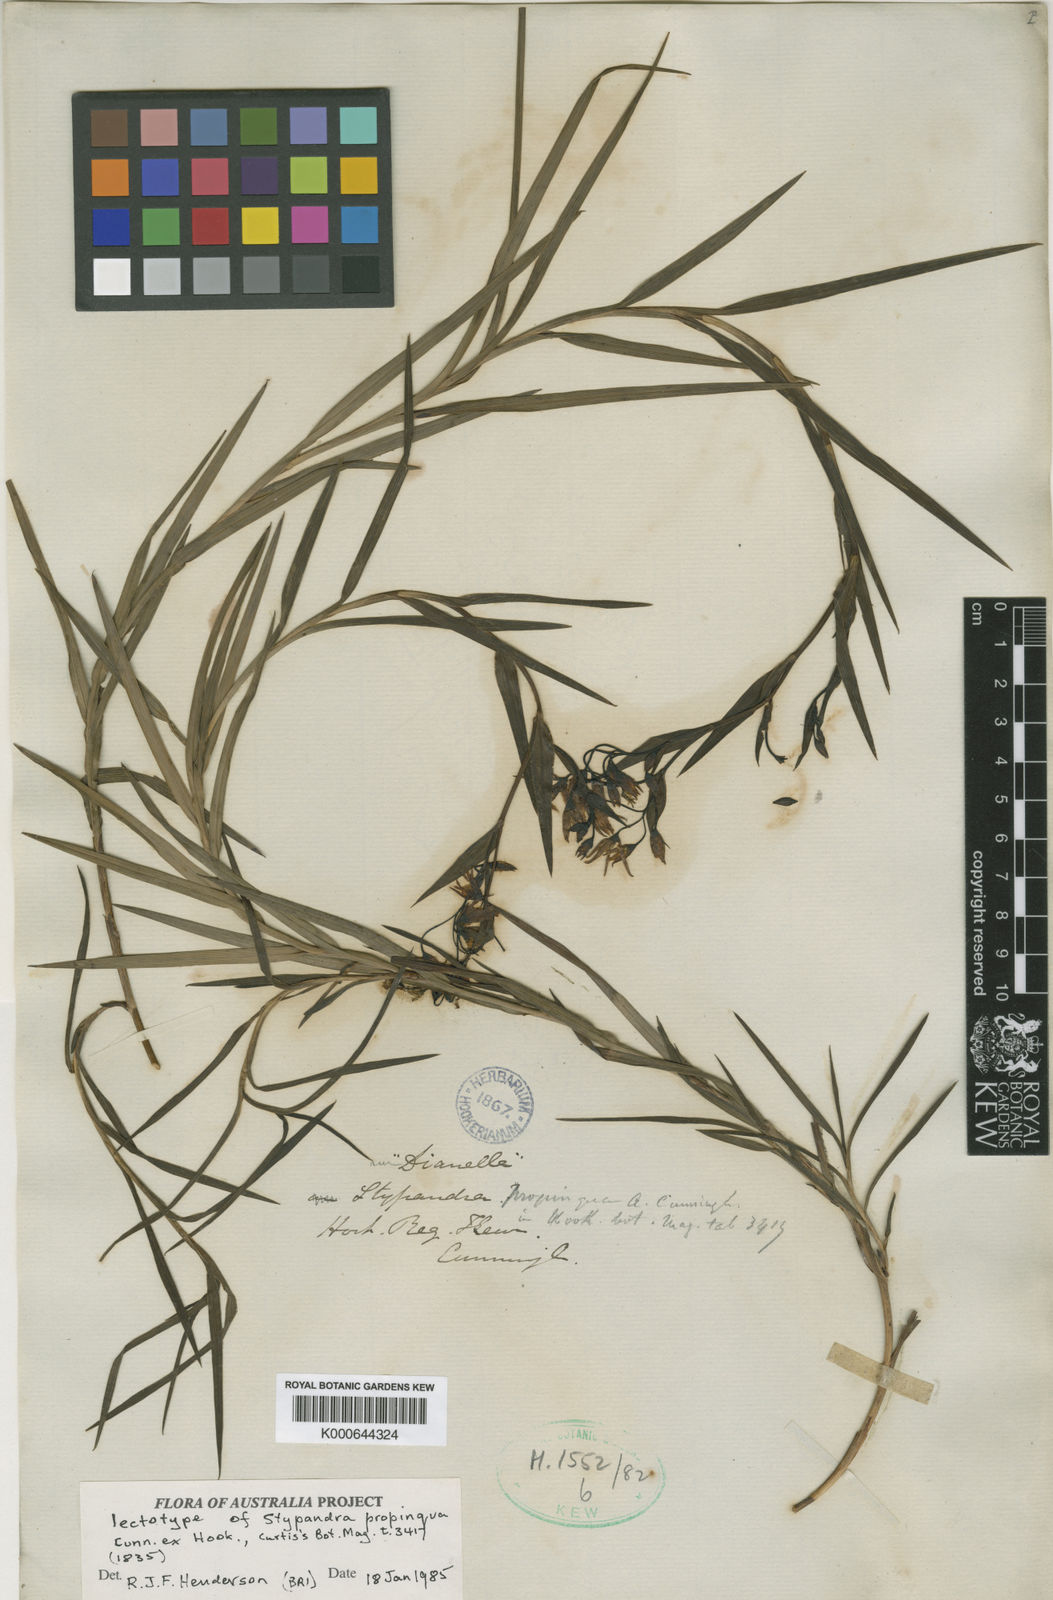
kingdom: Plantae
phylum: Tracheophyta
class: Liliopsida
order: Asparagales
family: Asphodelaceae
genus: Stypandra
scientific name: Stypandra glauca
